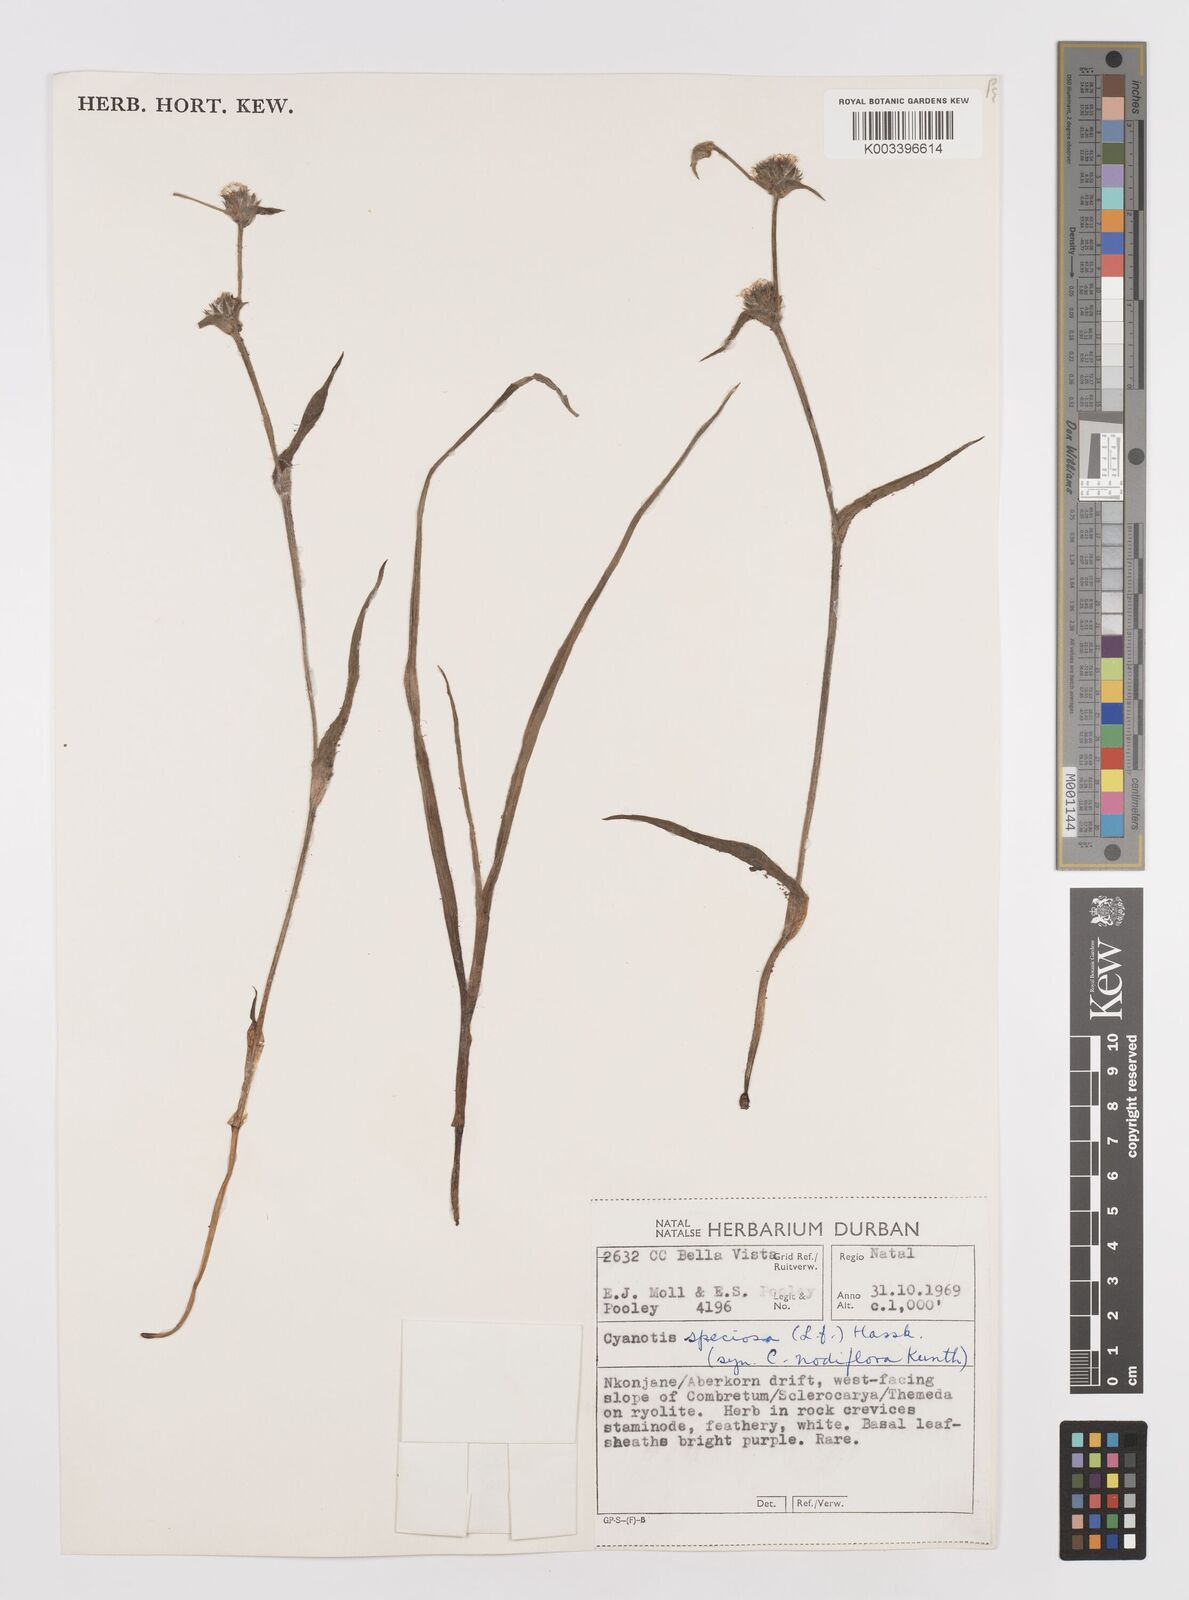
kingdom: Plantae
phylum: Tracheophyta
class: Liliopsida
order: Commelinales
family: Commelinaceae
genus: Cyanotis
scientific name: Cyanotis speciosa
